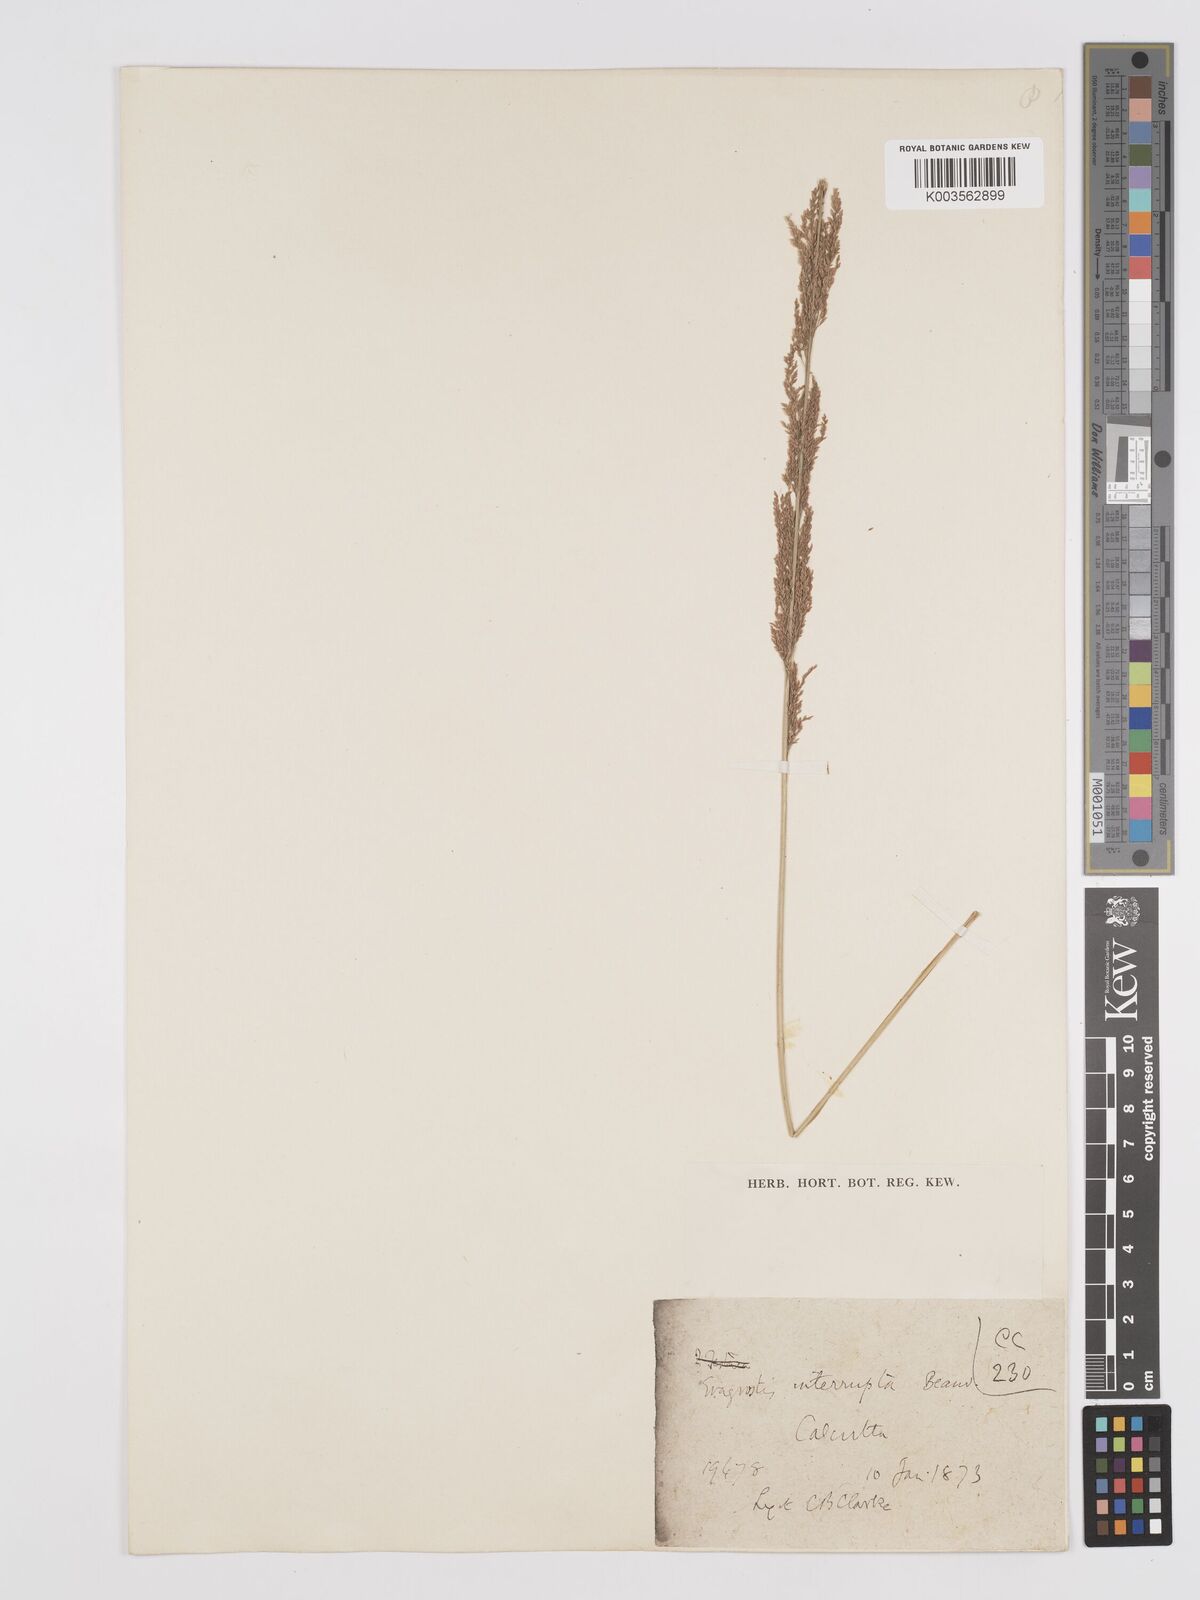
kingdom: Plantae
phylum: Tracheophyta
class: Liliopsida
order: Poales
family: Poaceae
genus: Eragrostis
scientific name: Eragrostis japonica
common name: Pond lovegrass
